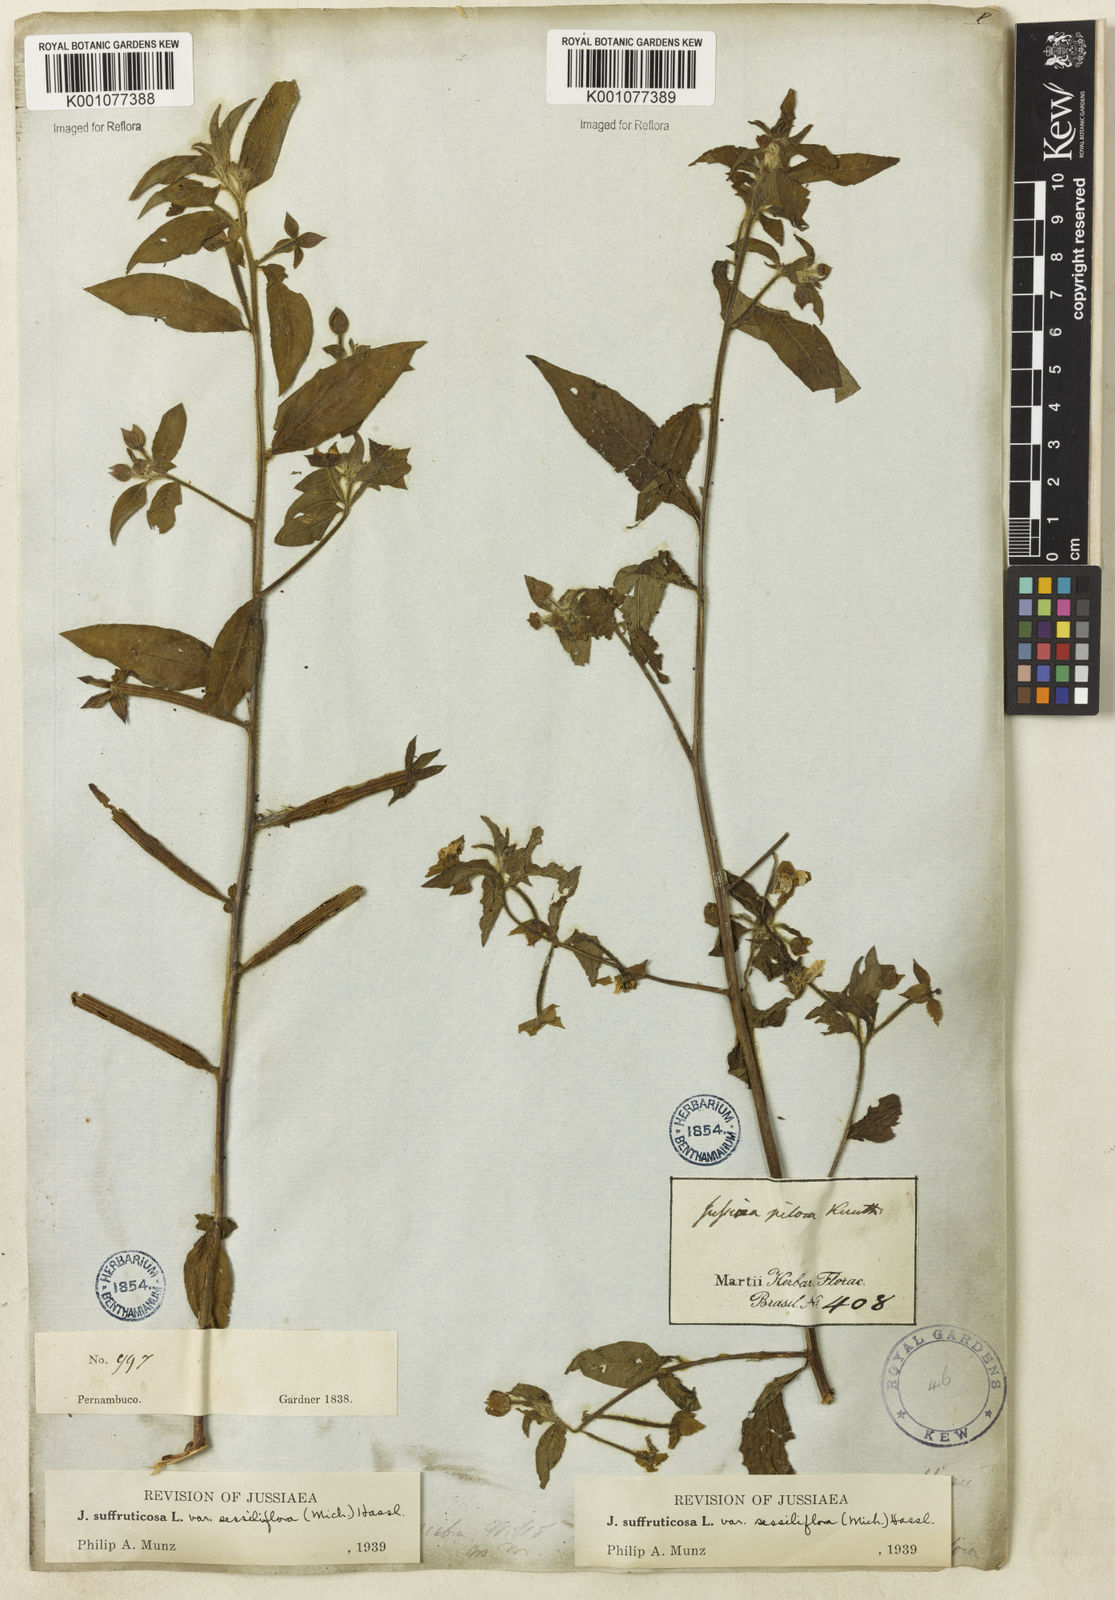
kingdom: Plantae
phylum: Tracheophyta
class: Magnoliopsida
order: Myrtales
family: Onagraceae
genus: Ludwigia
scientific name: Ludwigia octovalvis
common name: Water-primrose
